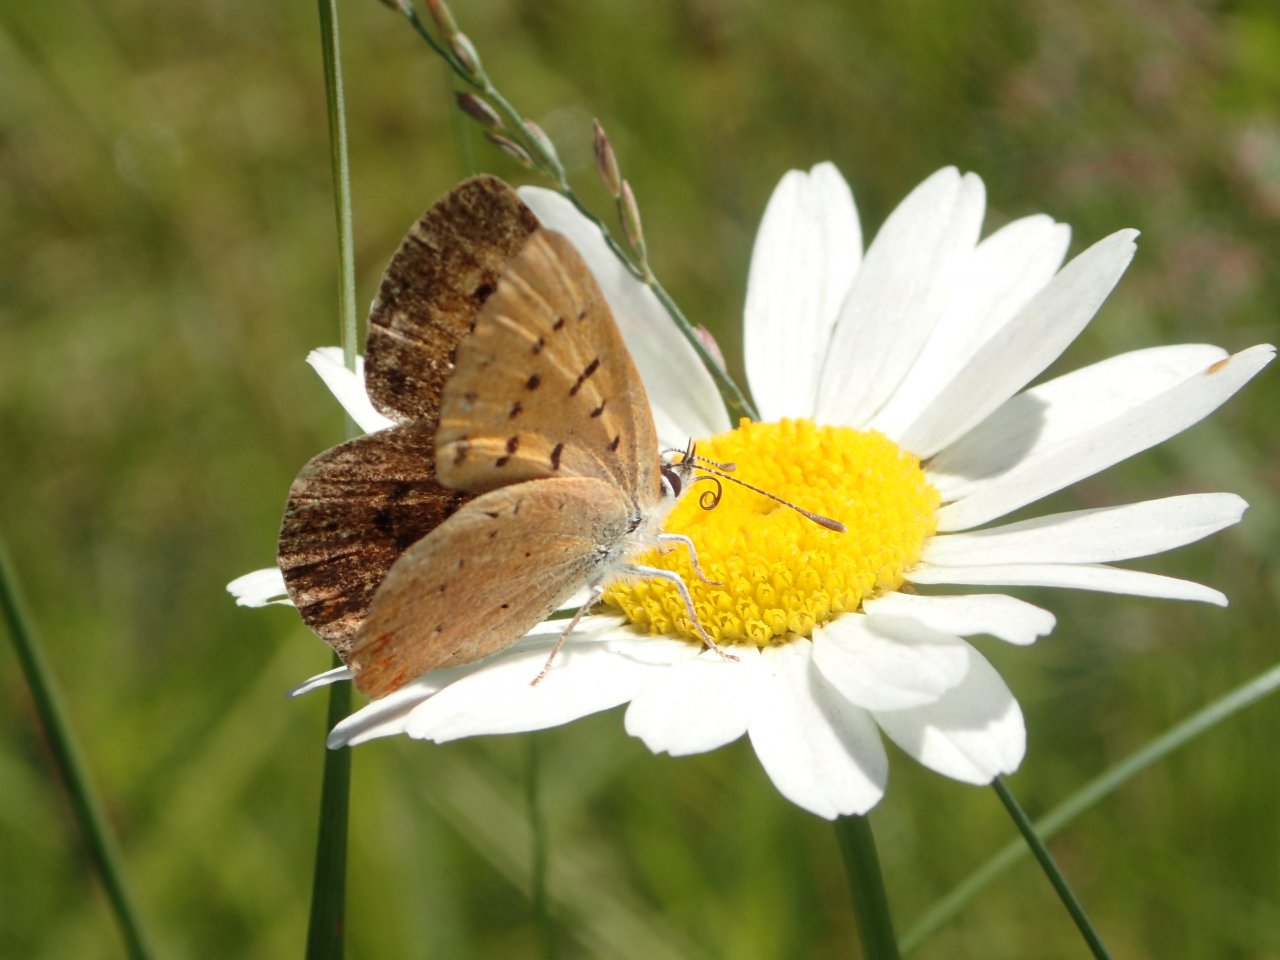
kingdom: Animalia
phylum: Arthropoda
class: Insecta
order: Lepidoptera
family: Lycaenidae
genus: Epidemia
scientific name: Epidemia dorcas
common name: Dorcas Copper
